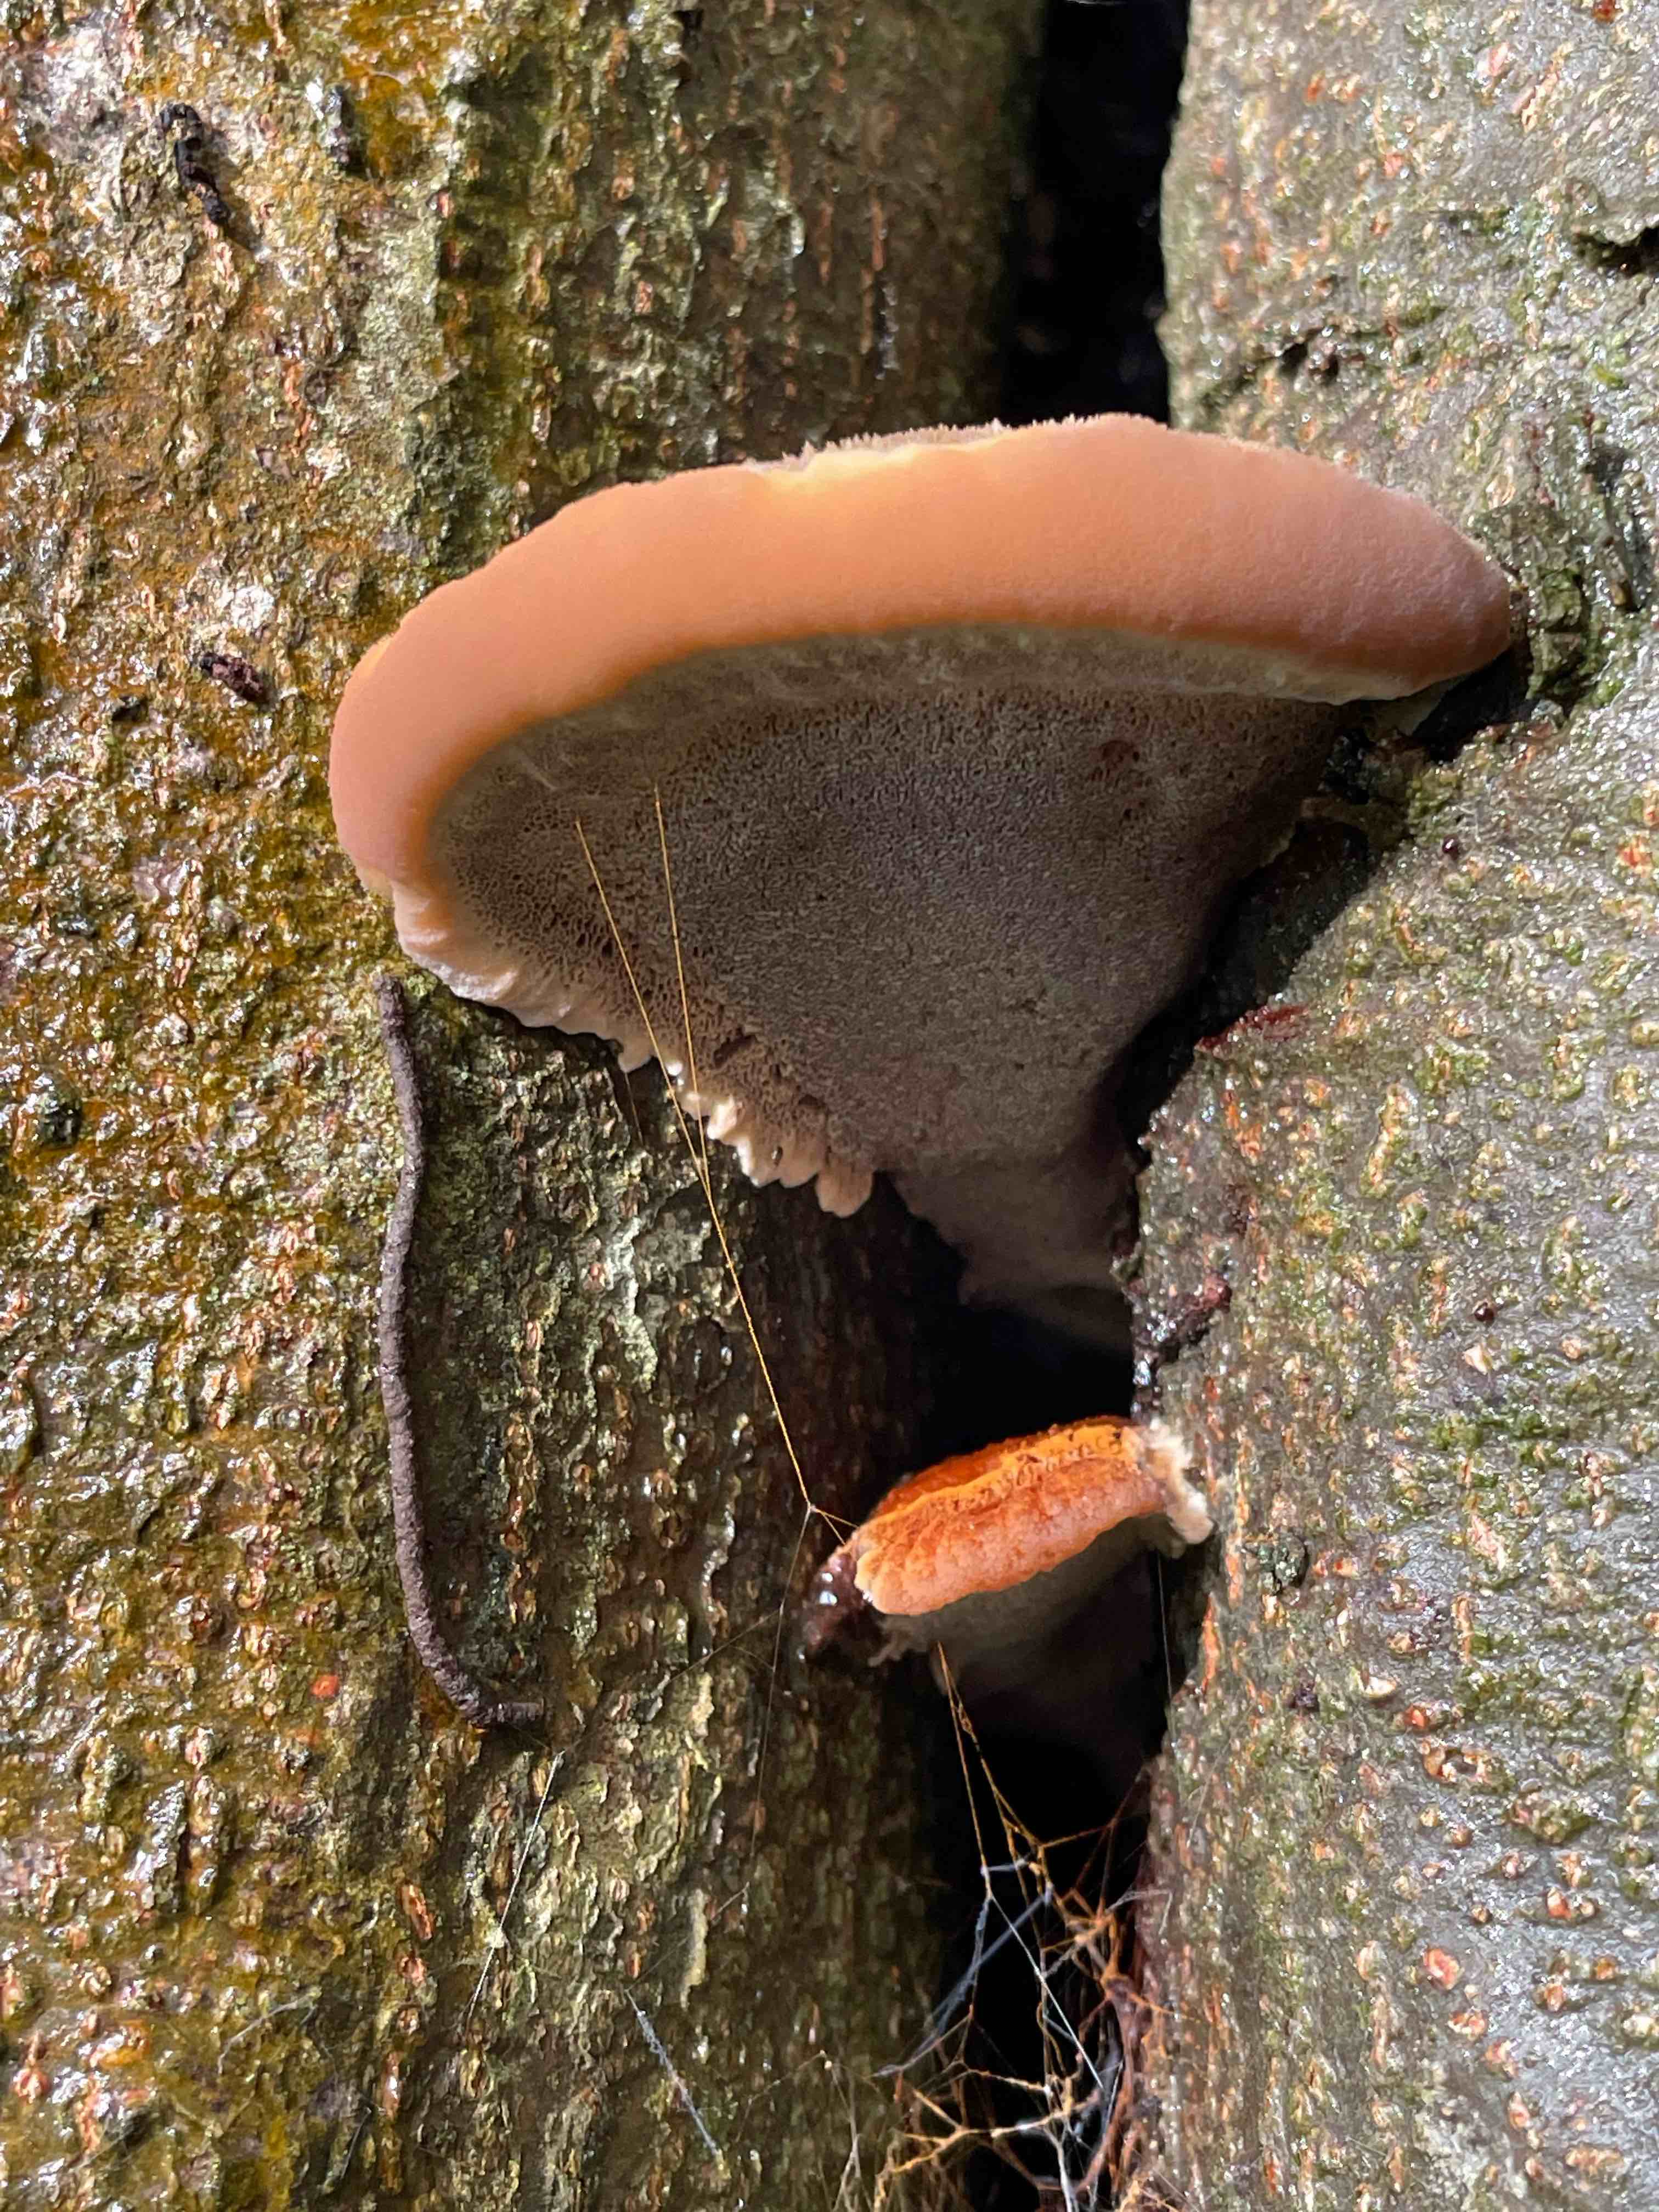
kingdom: Fungi
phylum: Basidiomycota
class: Agaricomycetes
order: Hymenochaetales
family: Hymenochaetaceae
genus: Inonotus
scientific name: Inonotus cuticularis
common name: kroghåret spejlporesvamp
